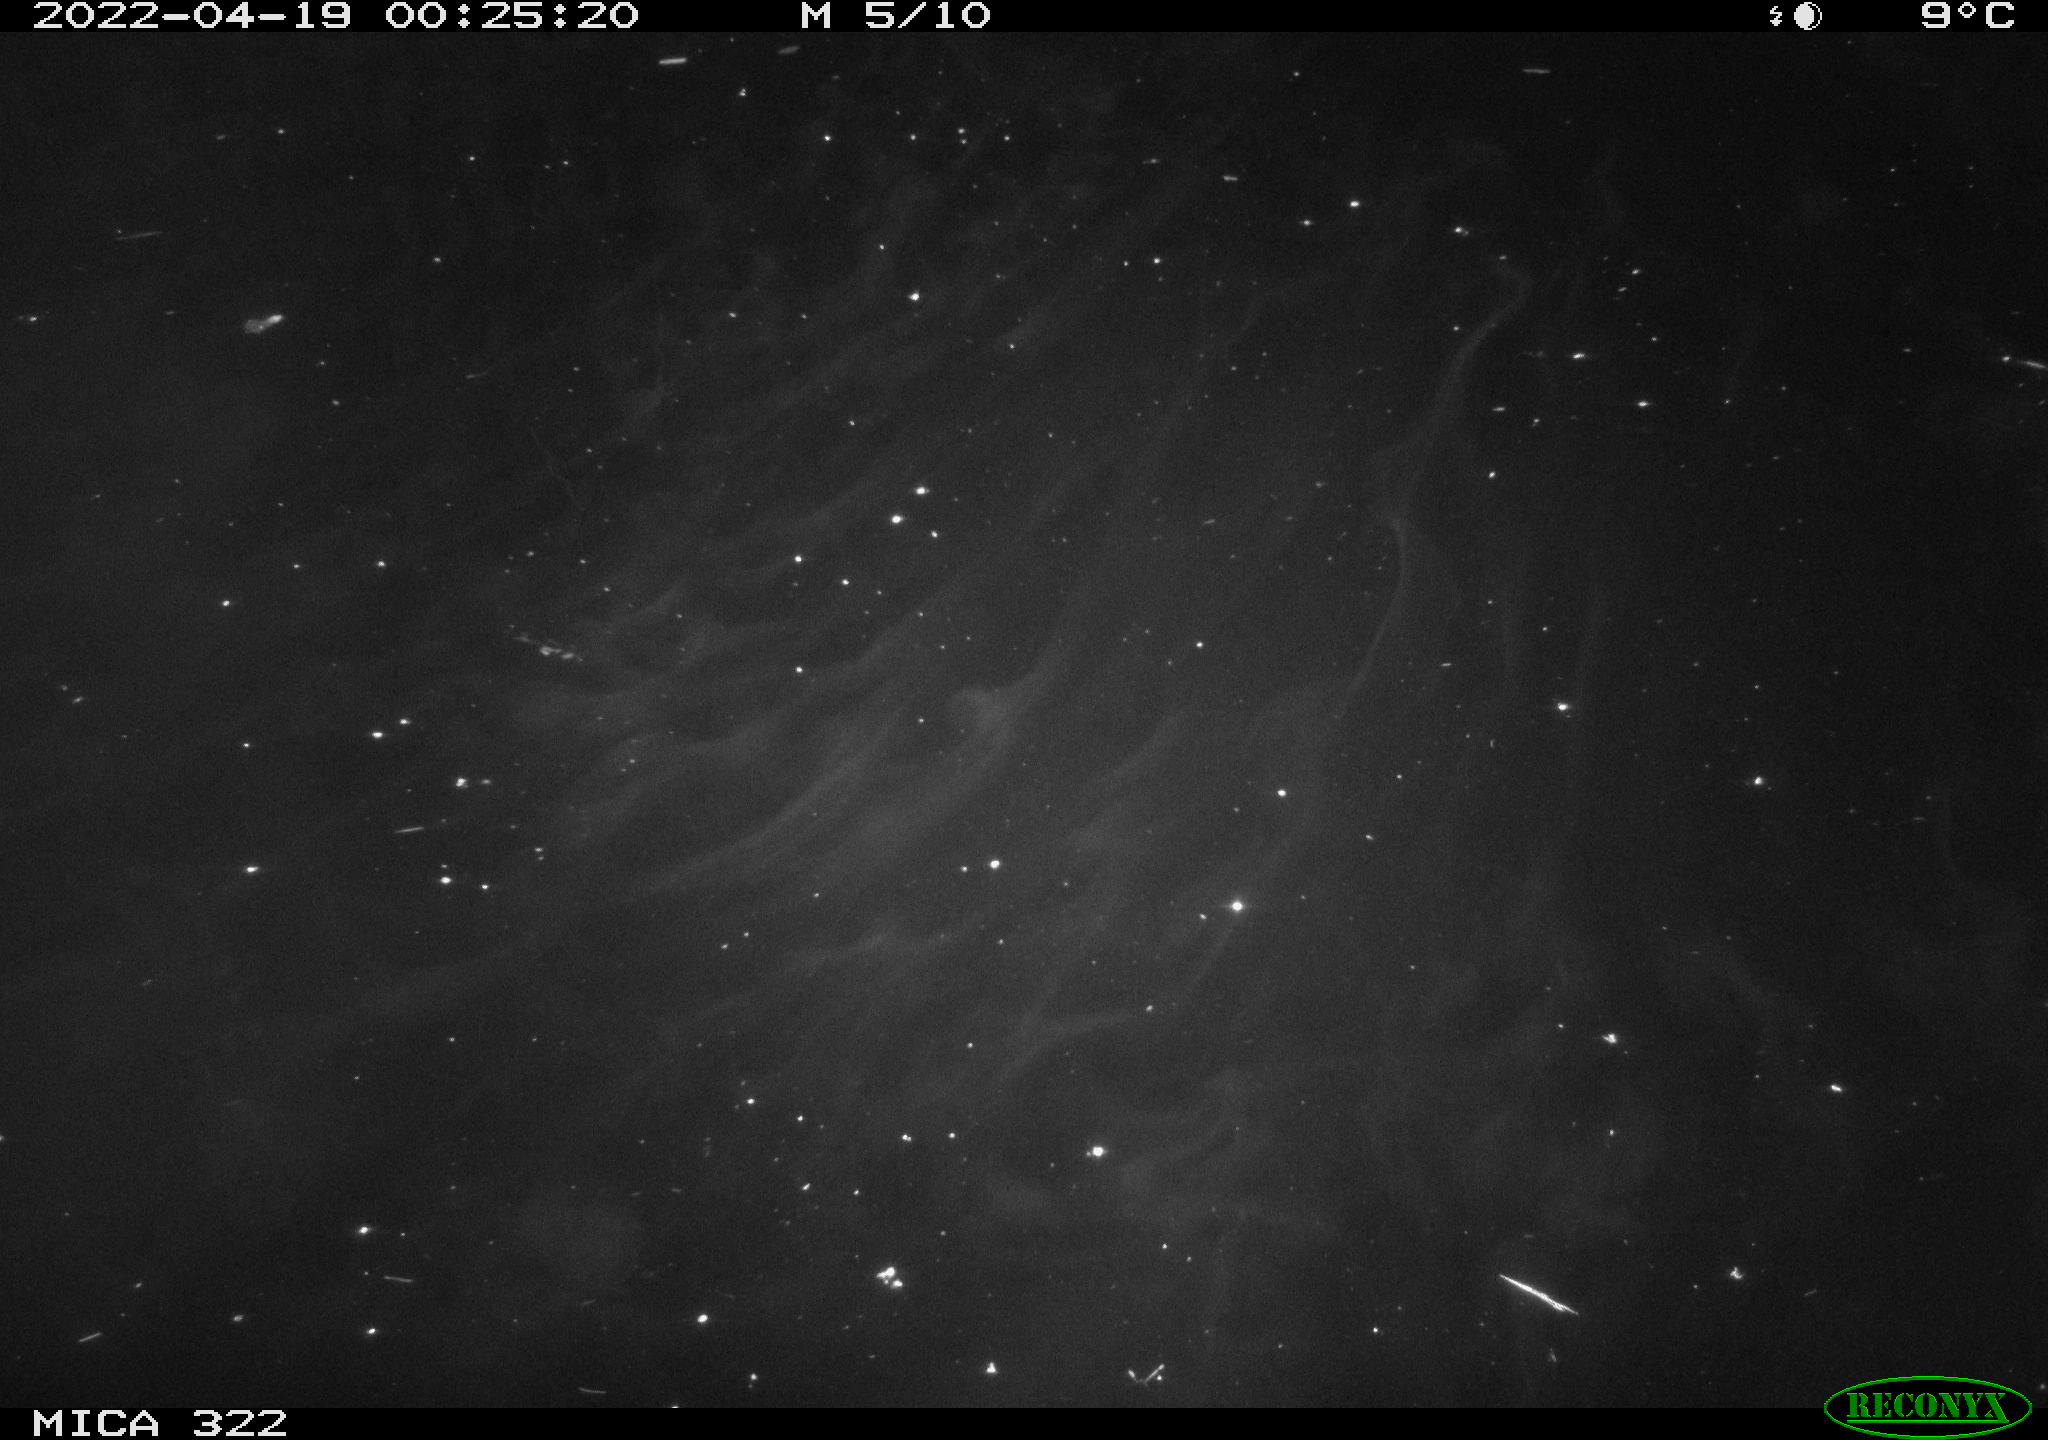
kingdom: Animalia
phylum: Chordata
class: Aves
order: Anseriformes
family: Anatidae
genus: Anas
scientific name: Anas platyrhynchos
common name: Mallard
